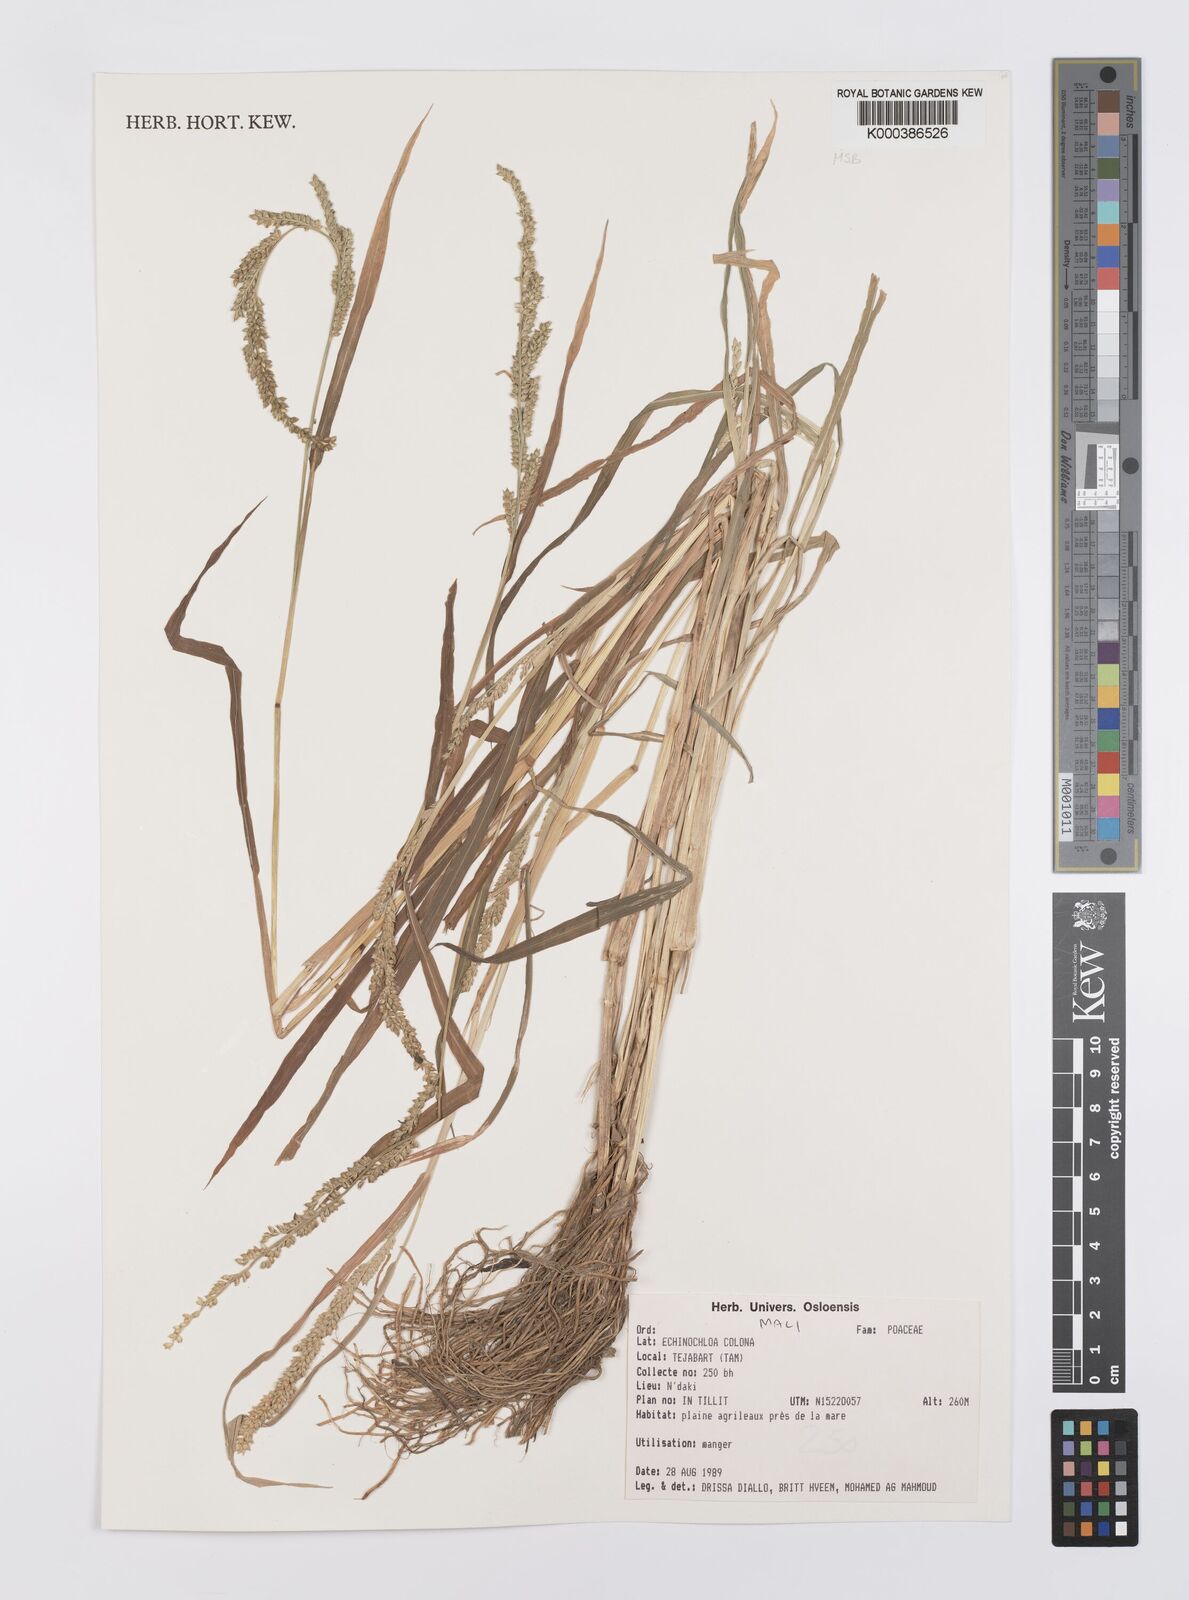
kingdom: Plantae
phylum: Tracheophyta
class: Liliopsida
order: Poales
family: Poaceae
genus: Echinochloa
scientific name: Echinochloa colonum
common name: Jungle rice
